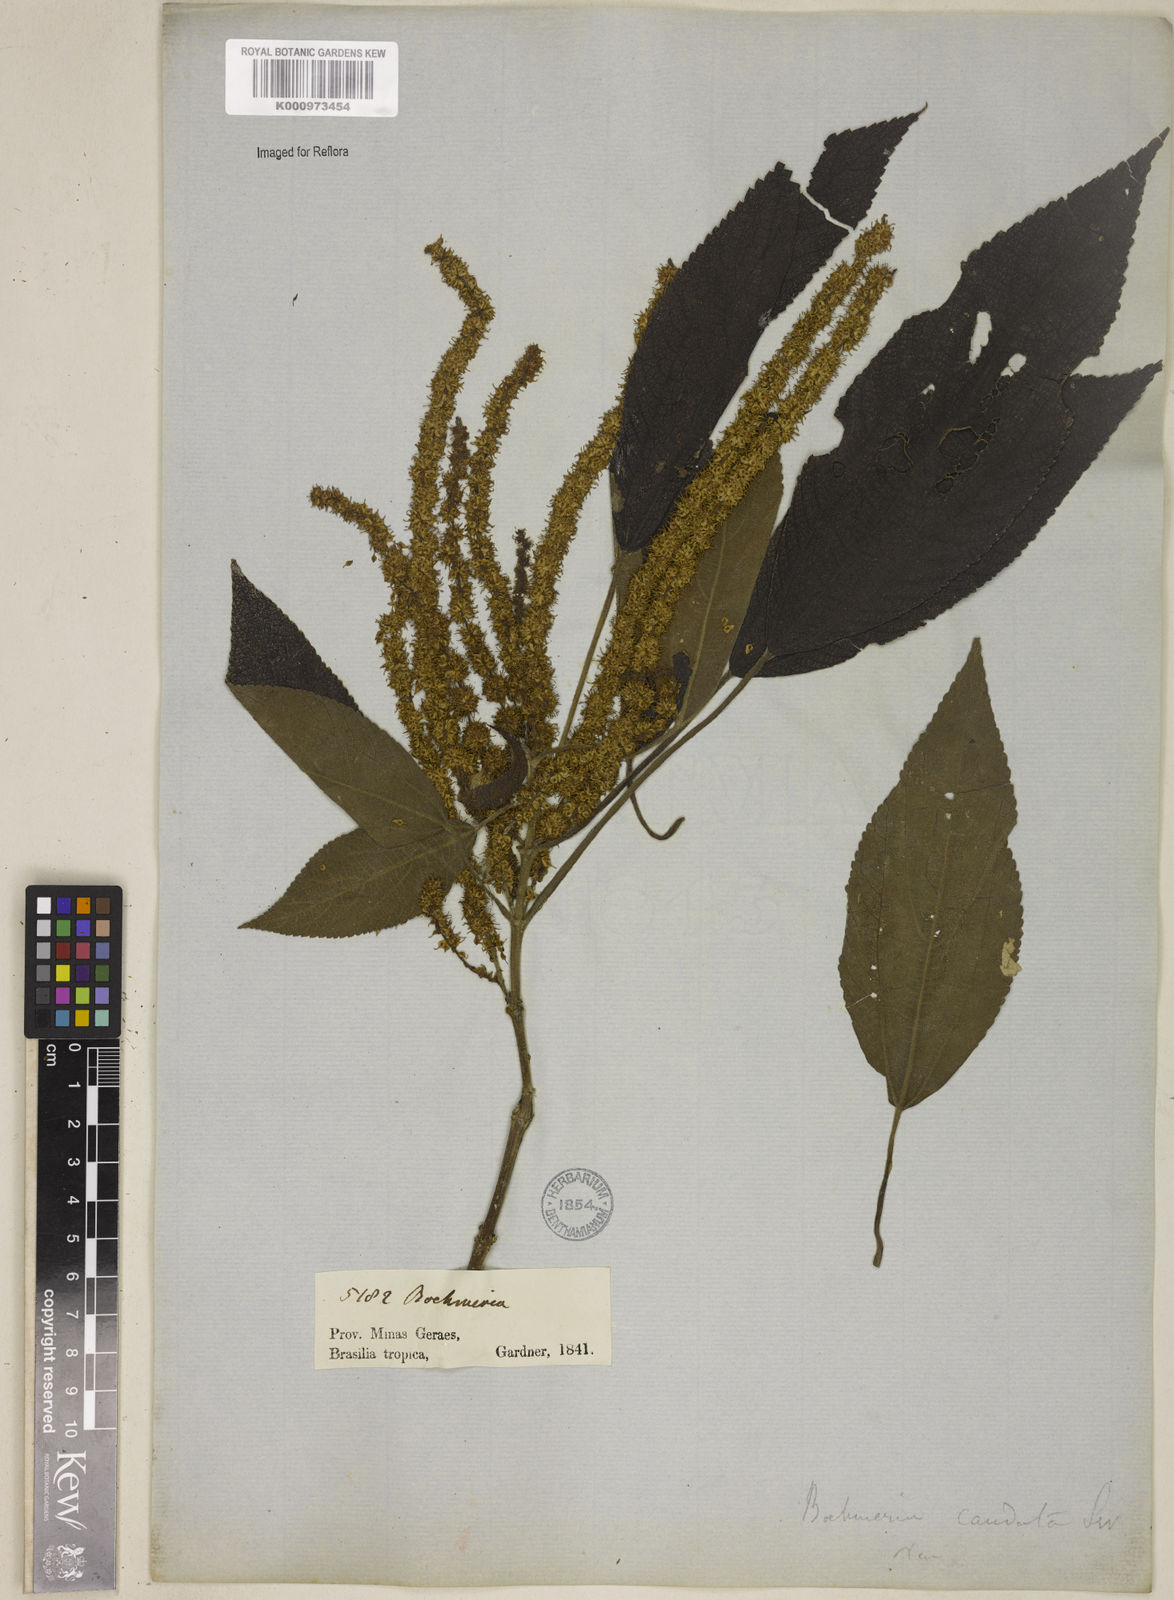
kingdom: Plantae
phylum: Tracheophyta
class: Magnoliopsida
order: Rosales
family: Urticaceae
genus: Boehmeria
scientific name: Boehmeria caudata
